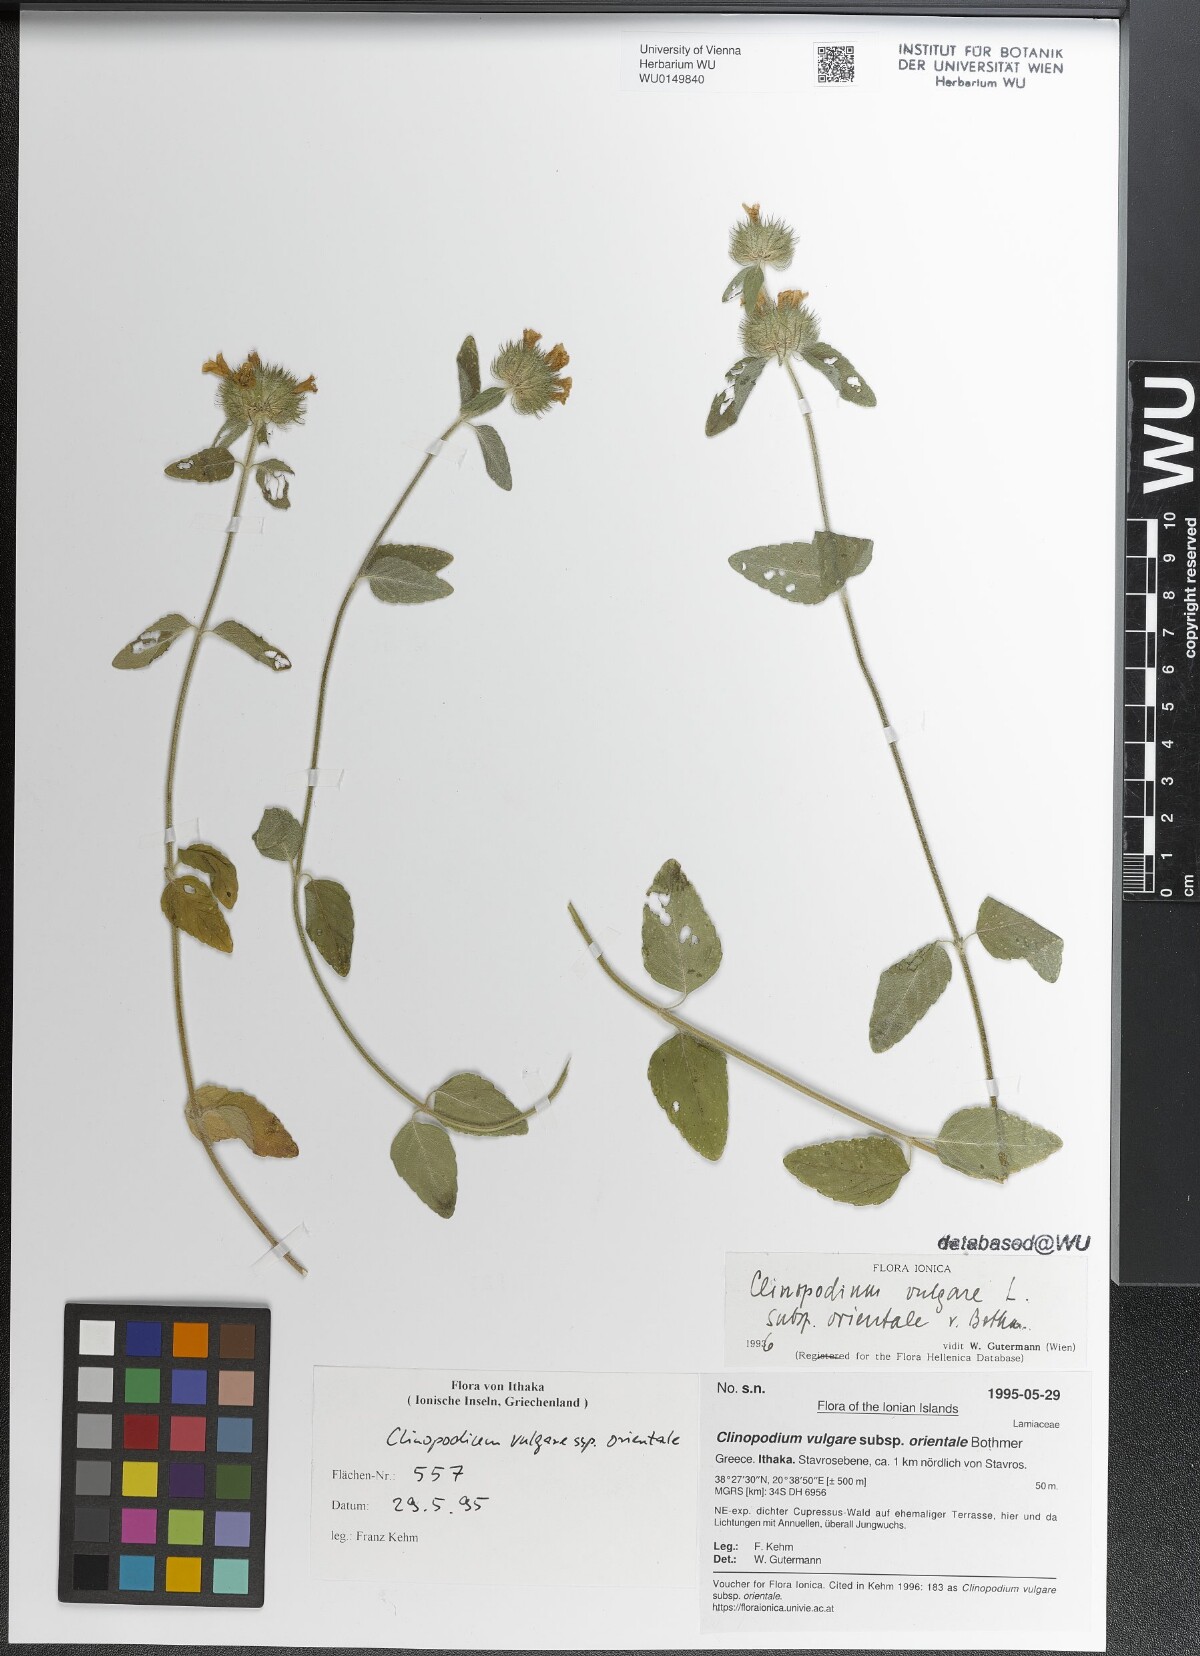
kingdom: Plantae
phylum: Tracheophyta
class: Magnoliopsida
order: Lamiales
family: Lamiaceae
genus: Clinopodium
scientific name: Clinopodium vulgare
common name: Wild basil
